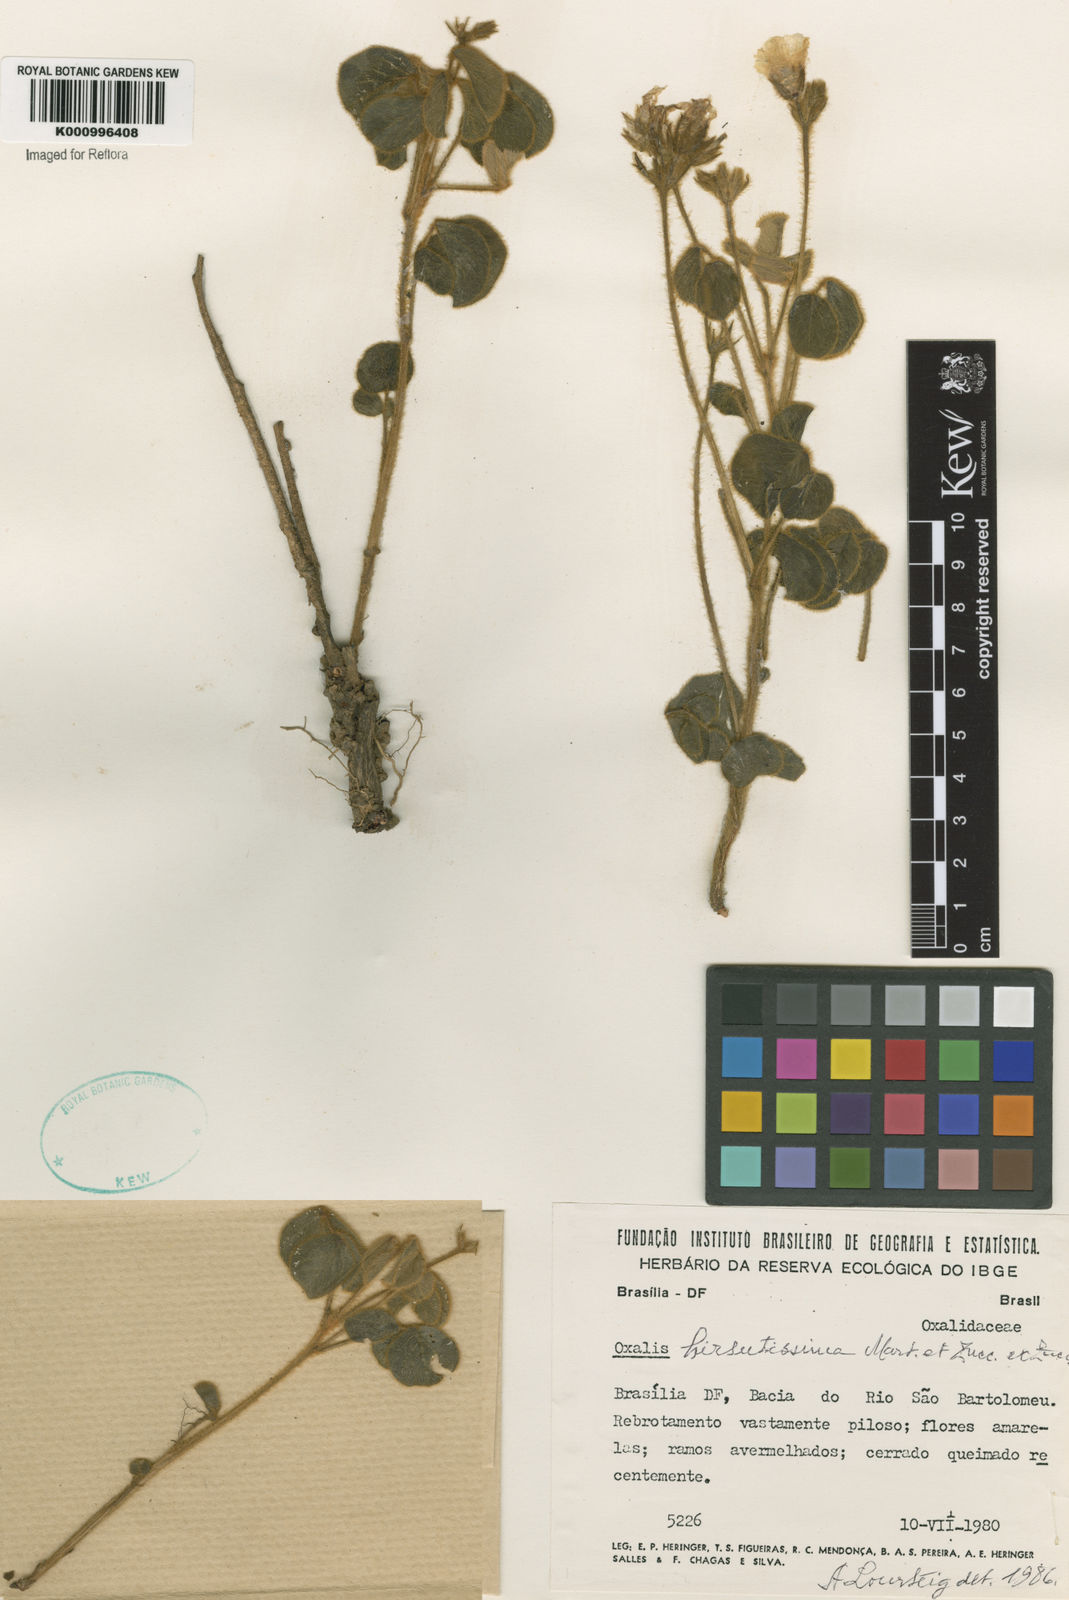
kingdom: Plantae
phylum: Tracheophyta
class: Magnoliopsida
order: Oxalidales
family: Oxalidaceae
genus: Oxalis
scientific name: Oxalis hirsutissima
